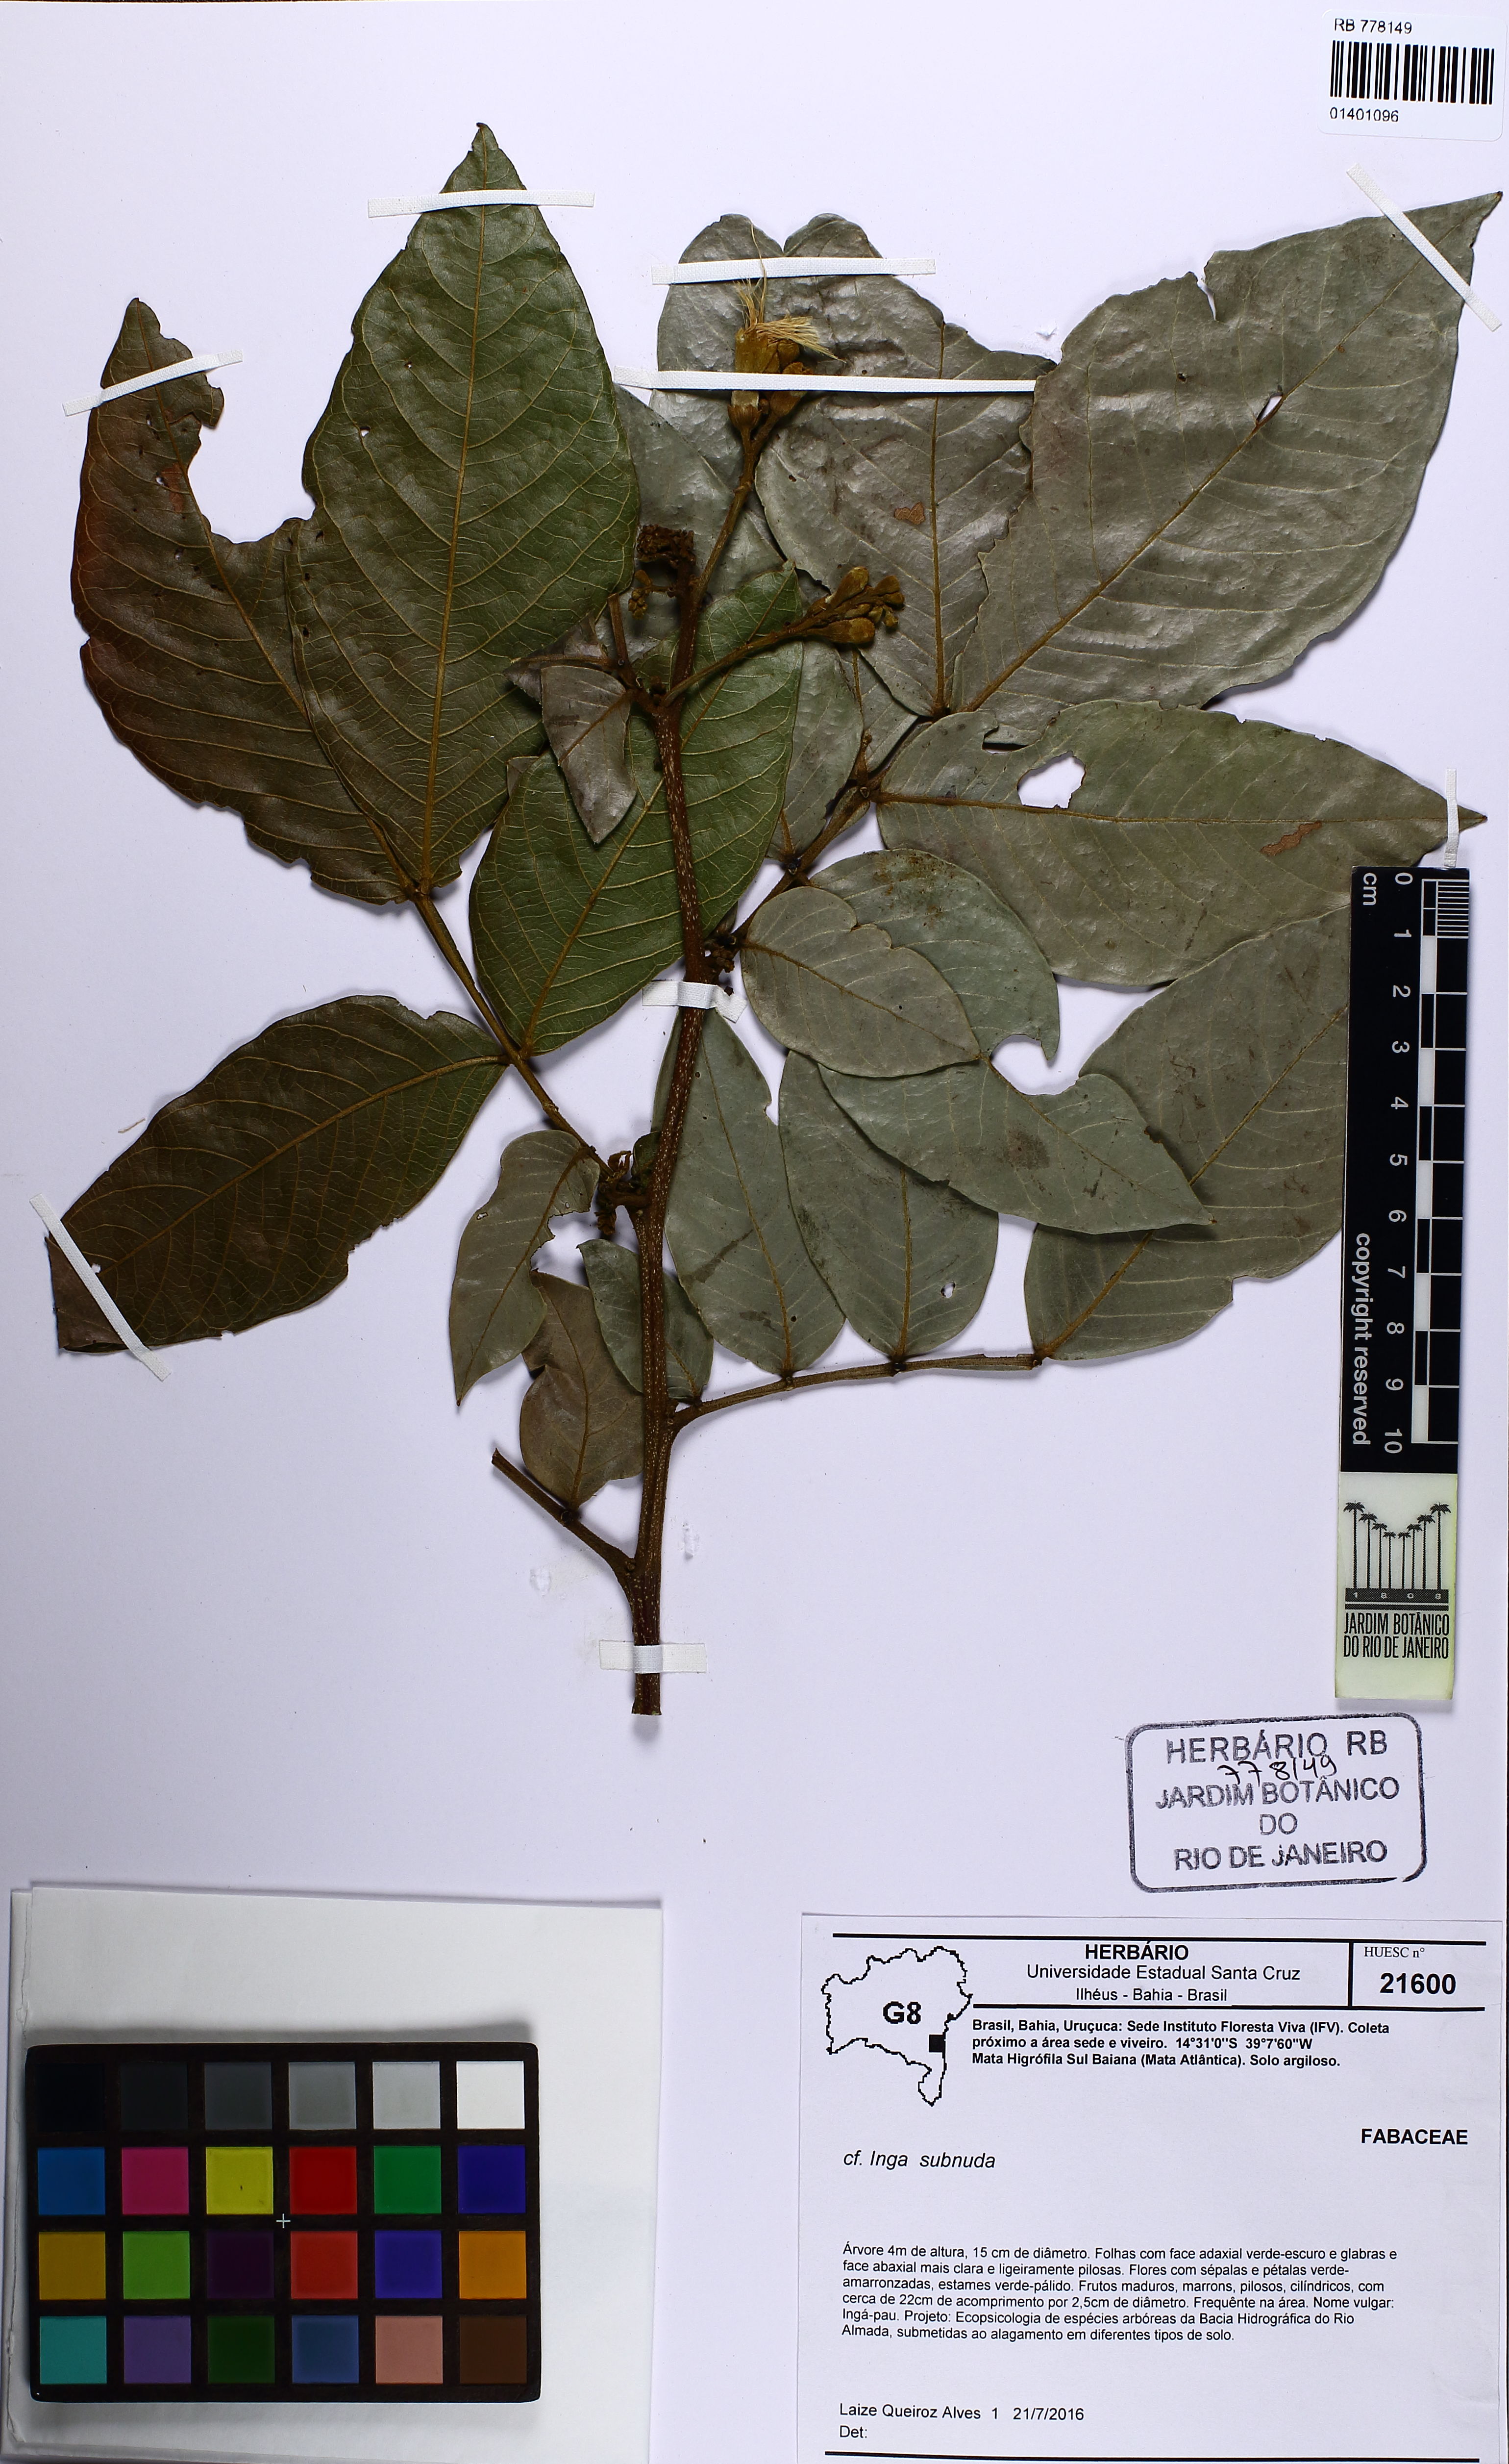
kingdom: Plantae
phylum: Tracheophyta
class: Magnoliopsida
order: Fabales
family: Fabaceae
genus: Inga
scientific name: Inga subnuda
